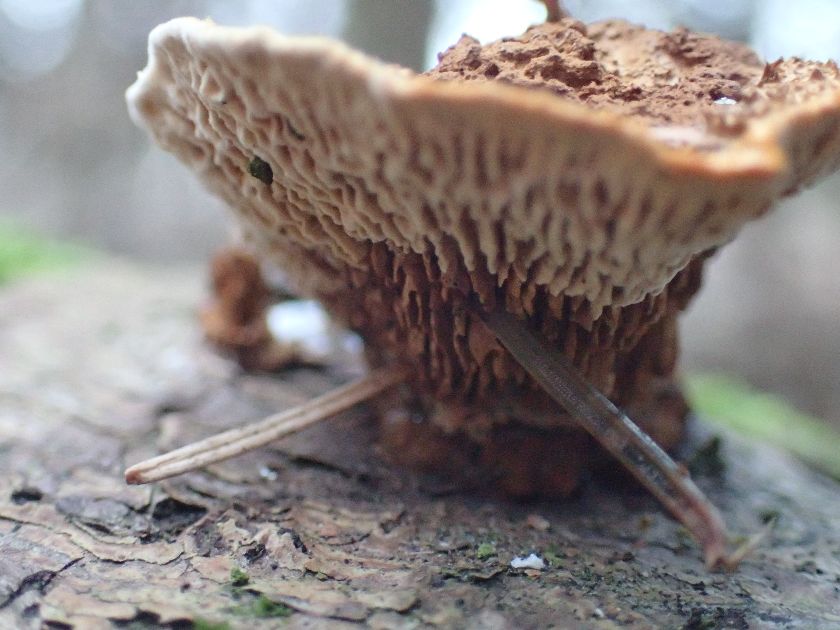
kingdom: Fungi
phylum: Basidiomycota
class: Agaricomycetes
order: Gloeophyllales
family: Gloeophyllaceae
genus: Gloeophyllum
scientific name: Gloeophyllum sepiarium
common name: fyrre-korkhat
